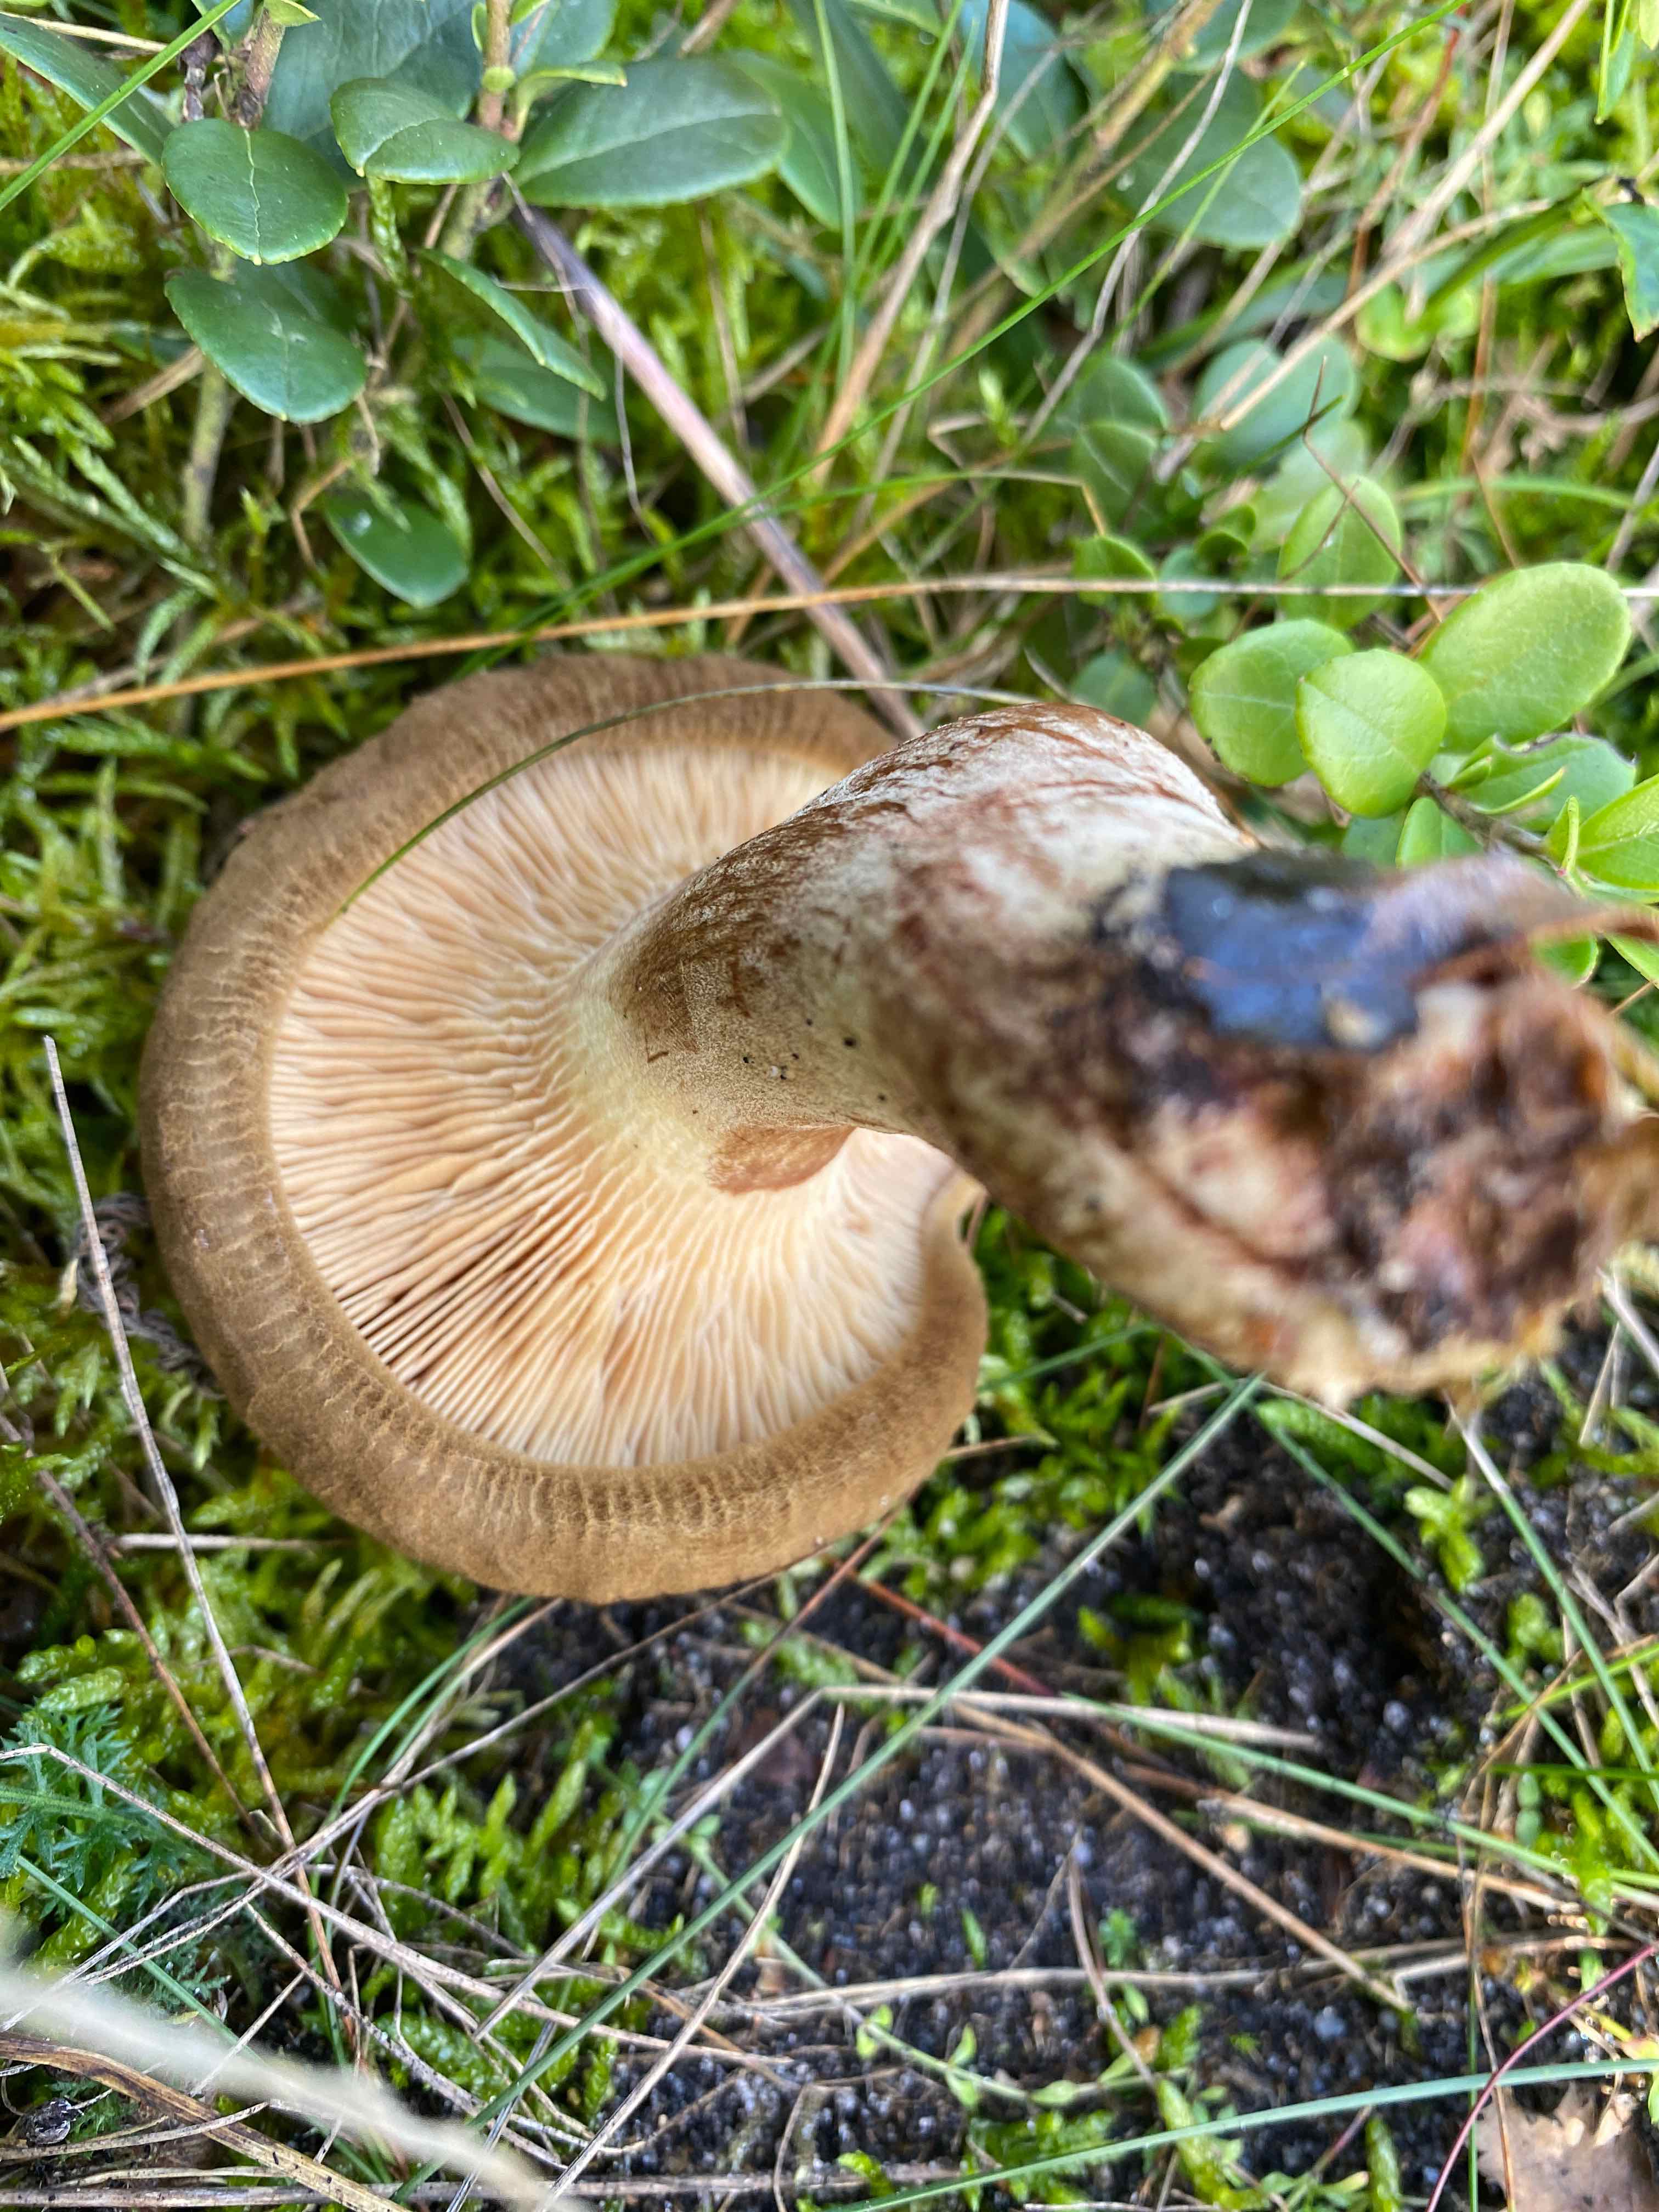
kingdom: Fungi
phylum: Basidiomycota
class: Agaricomycetes
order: Boletales
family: Paxillaceae
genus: Paxillus
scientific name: Paxillus
